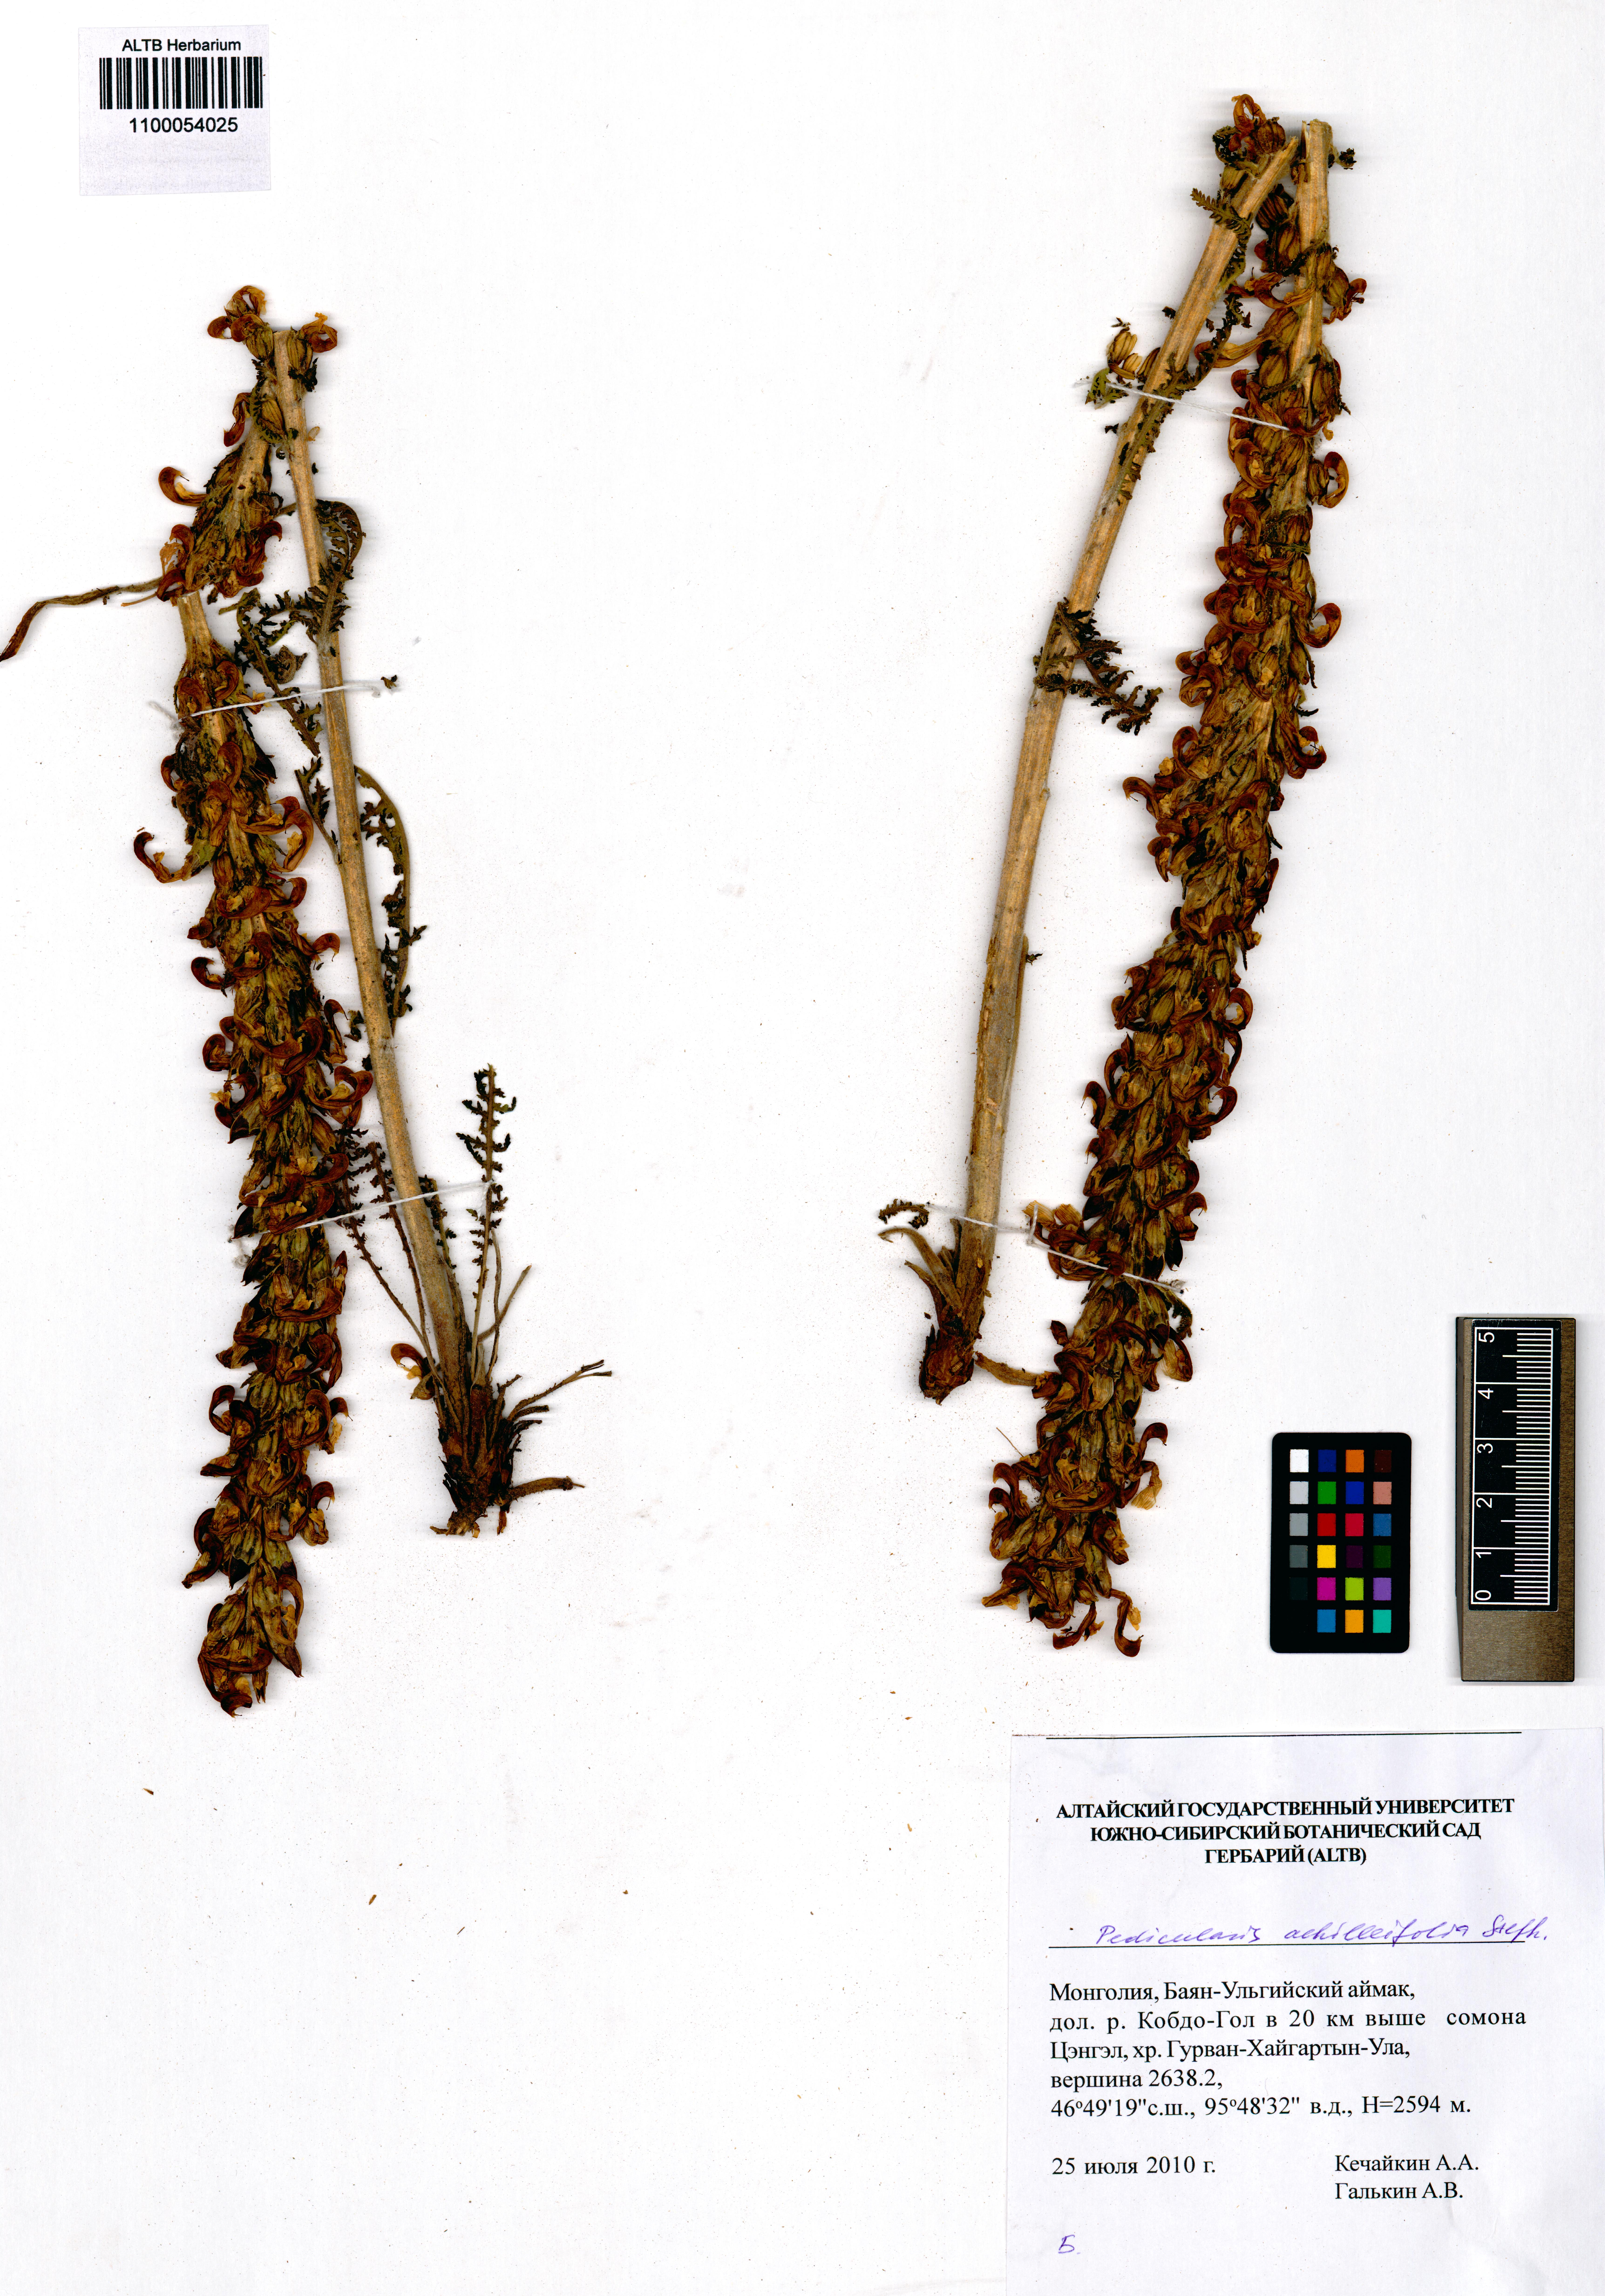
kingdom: Plantae
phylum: Tracheophyta
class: Magnoliopsida
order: Lamiales
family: Orobanchaceae
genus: Pedicularis
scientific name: Pedicularis achilleifolia
